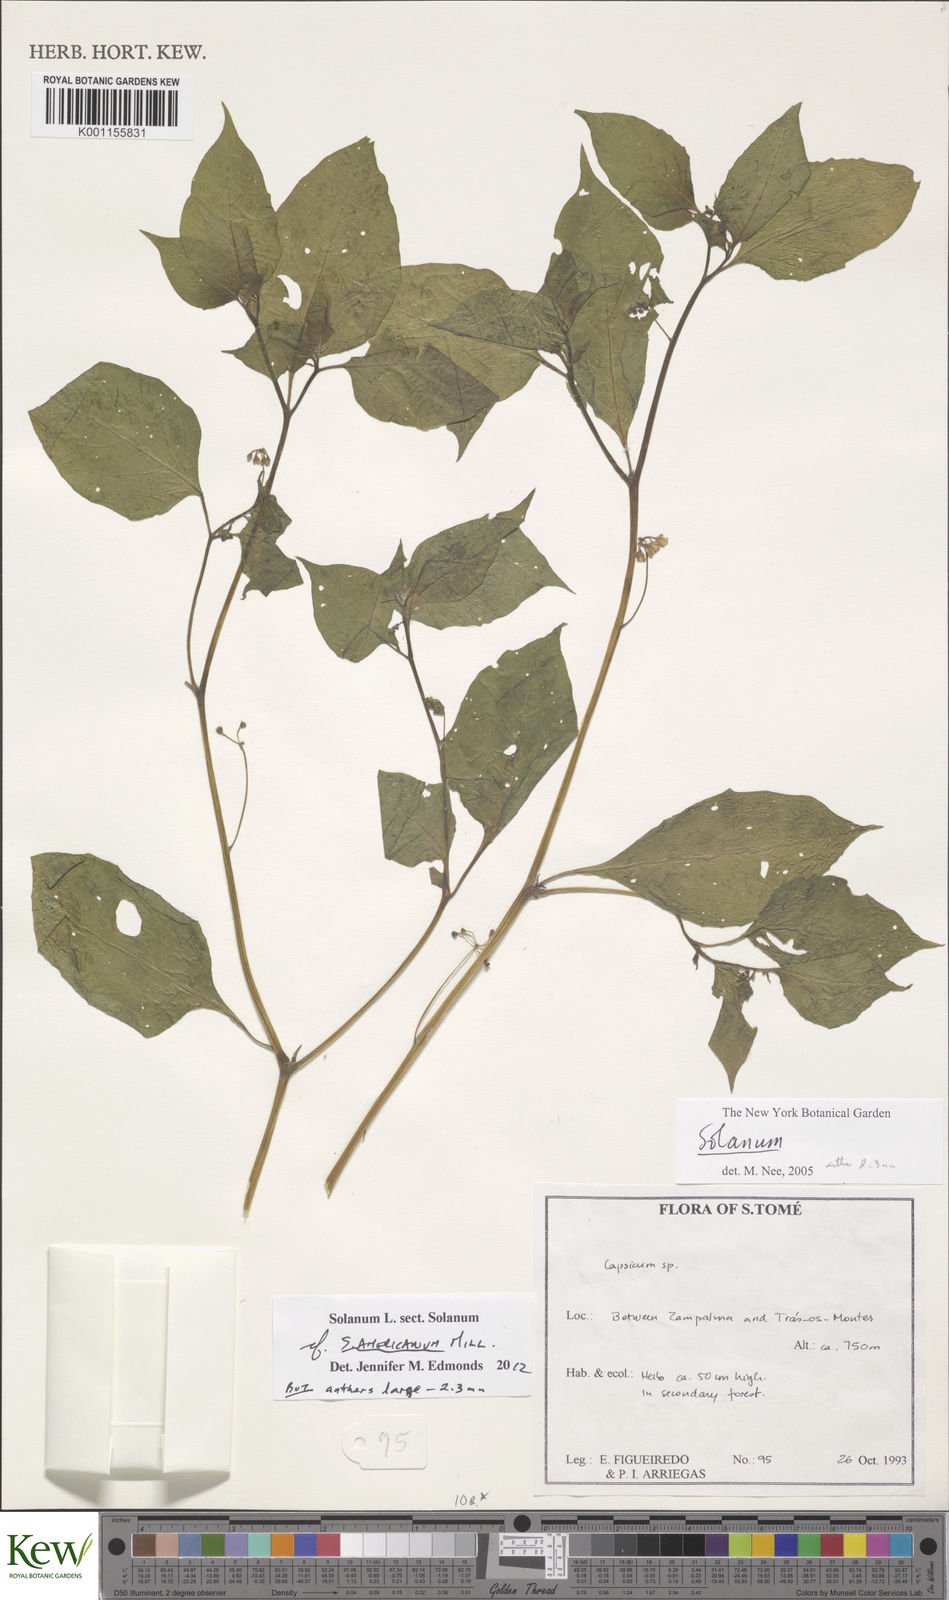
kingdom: Plantae
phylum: Tracheophyta
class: Magnoliopsida
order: Solanales
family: Solanaceae
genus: Solanum
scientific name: Solanum scabrum
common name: Garden-huckleberry
